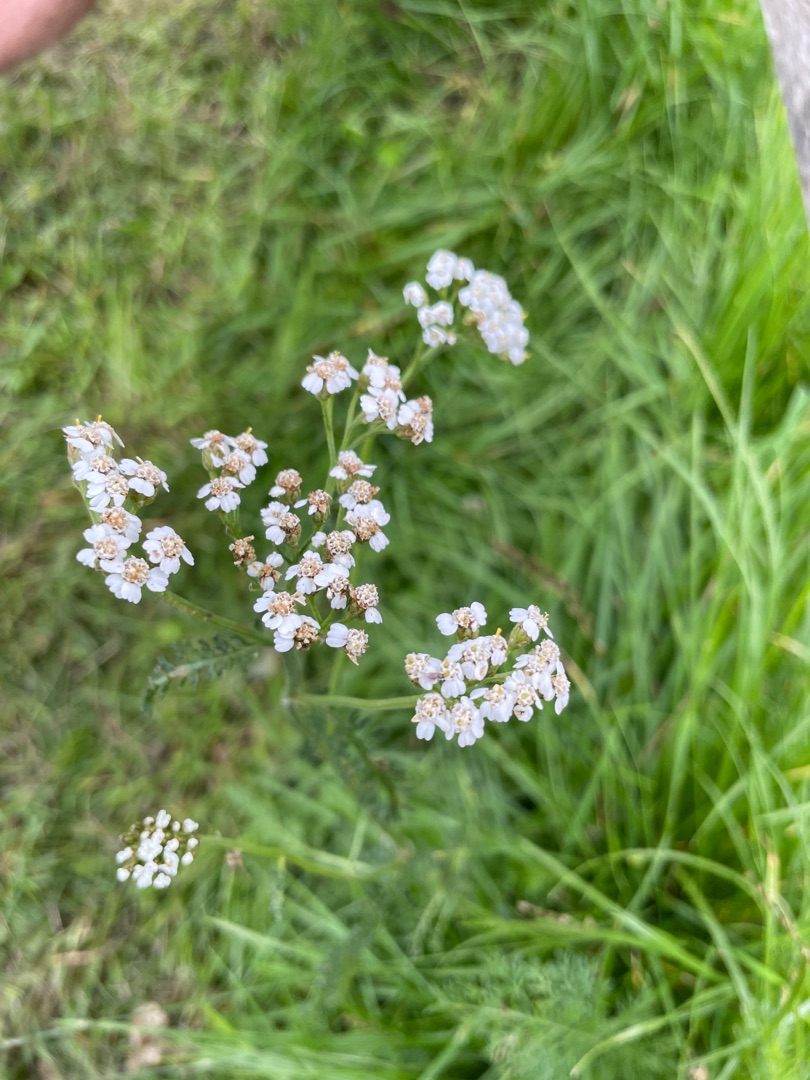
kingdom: Plantae
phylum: Tracheophyta
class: Magnoliopsida
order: Asterales
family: Asteraceae
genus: Achillea
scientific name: Achillea millefolium
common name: Almindelig røllike
